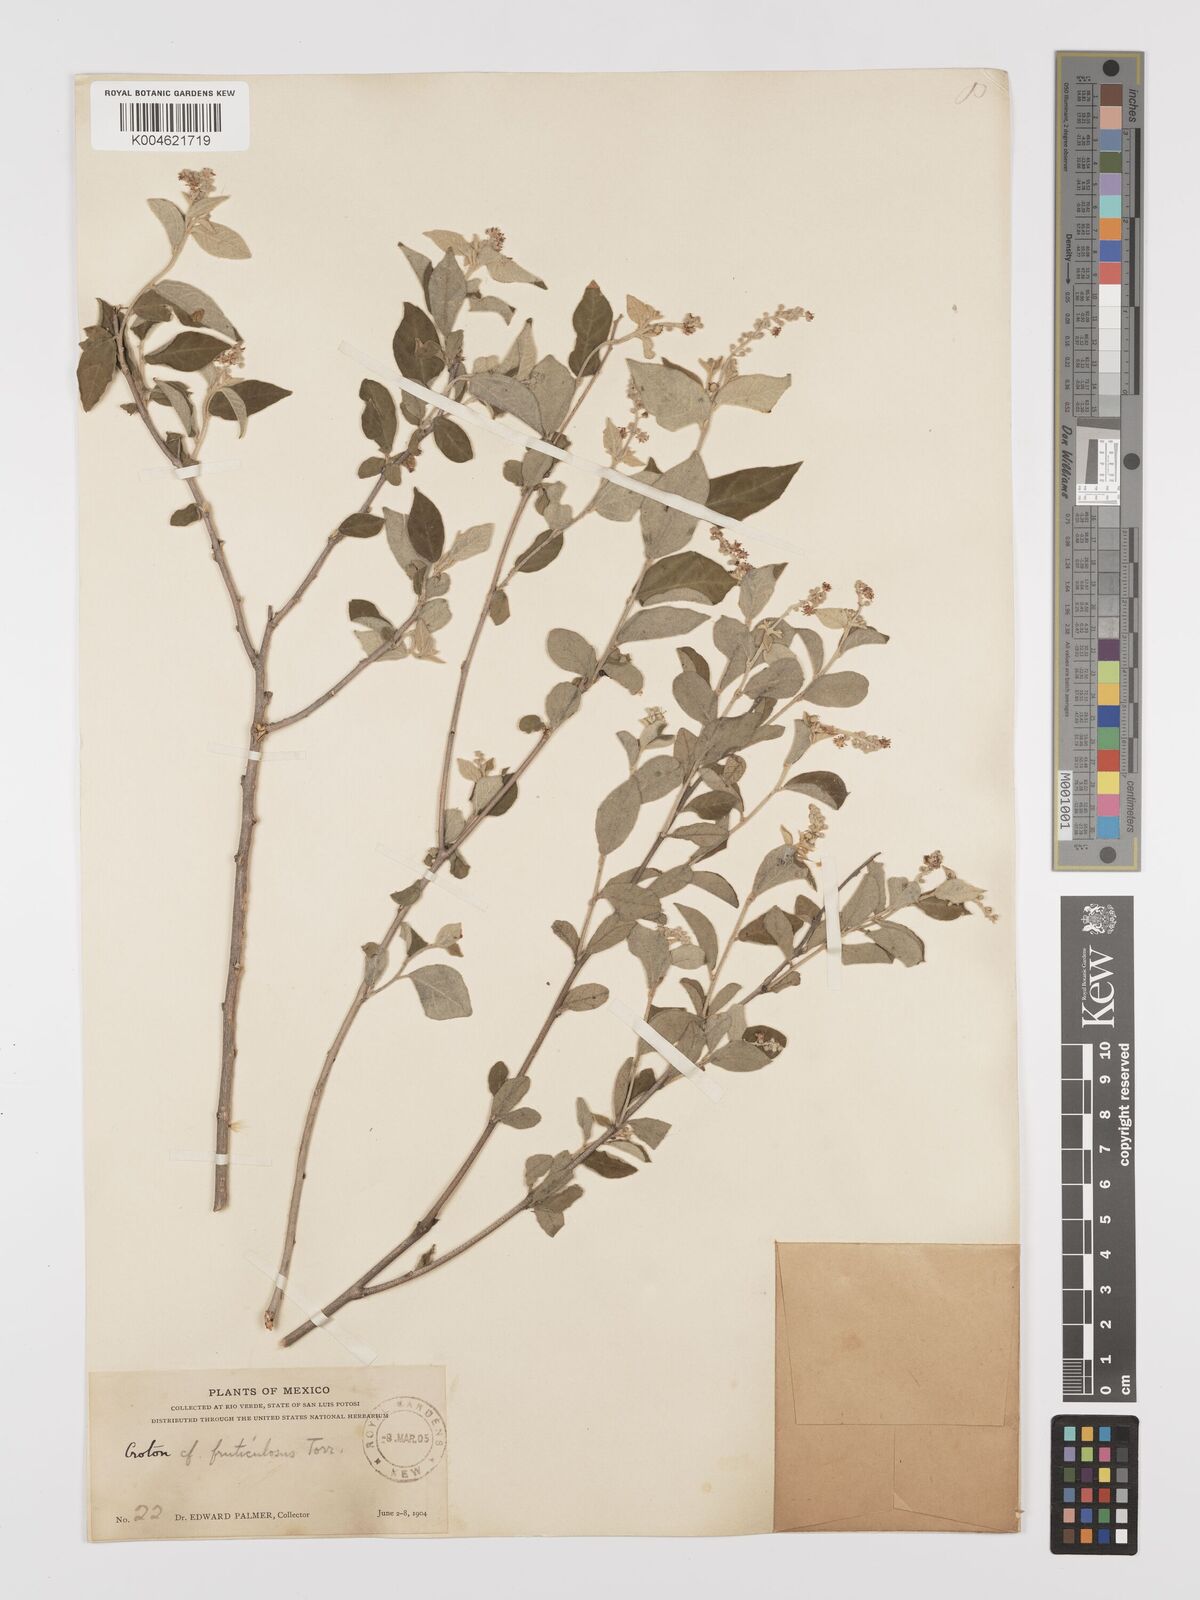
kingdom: Plantae
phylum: Tracheophyta
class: Magnoliopsida
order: Malpighiales
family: Euphorbiaceae
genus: Croton
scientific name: Croton fruticulosus
